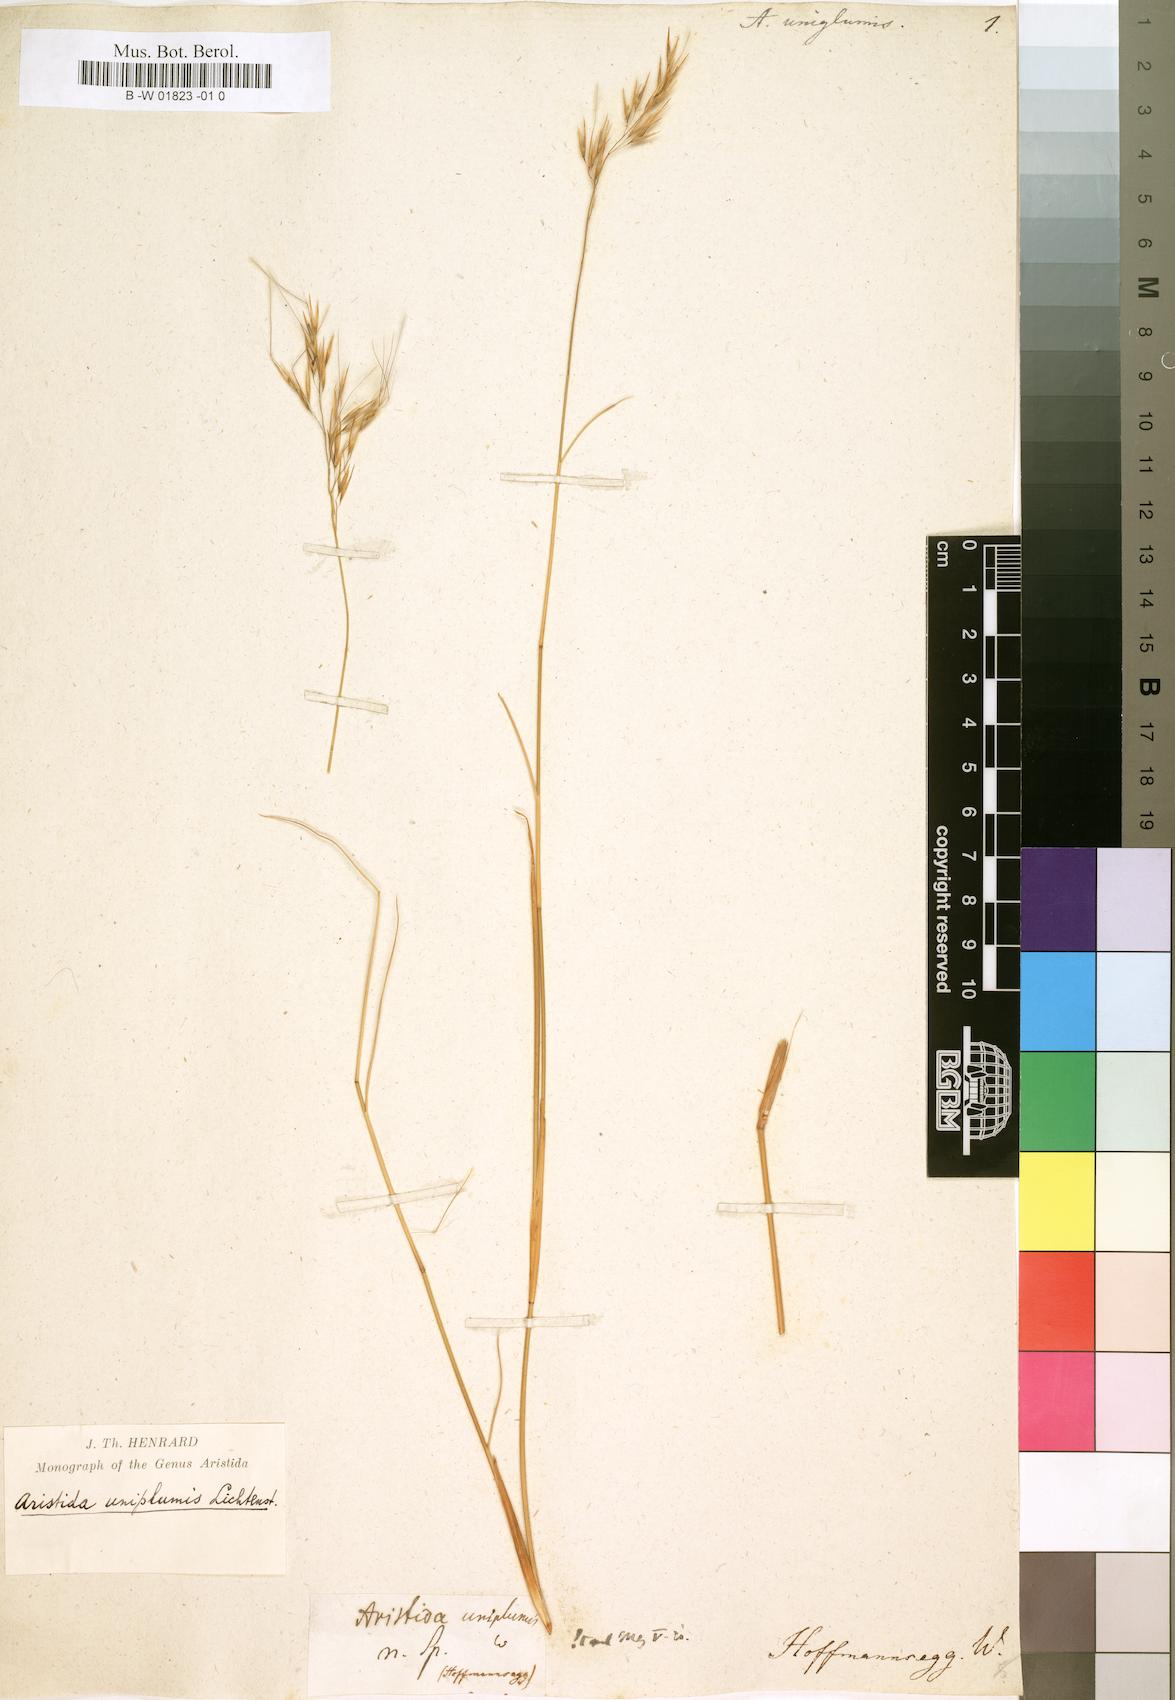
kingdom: Plantae
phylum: Tracheophyta
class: Liliopsida
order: Poales
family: Poaceae
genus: Stipagrostis
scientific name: Stipagrostis uniplumis
